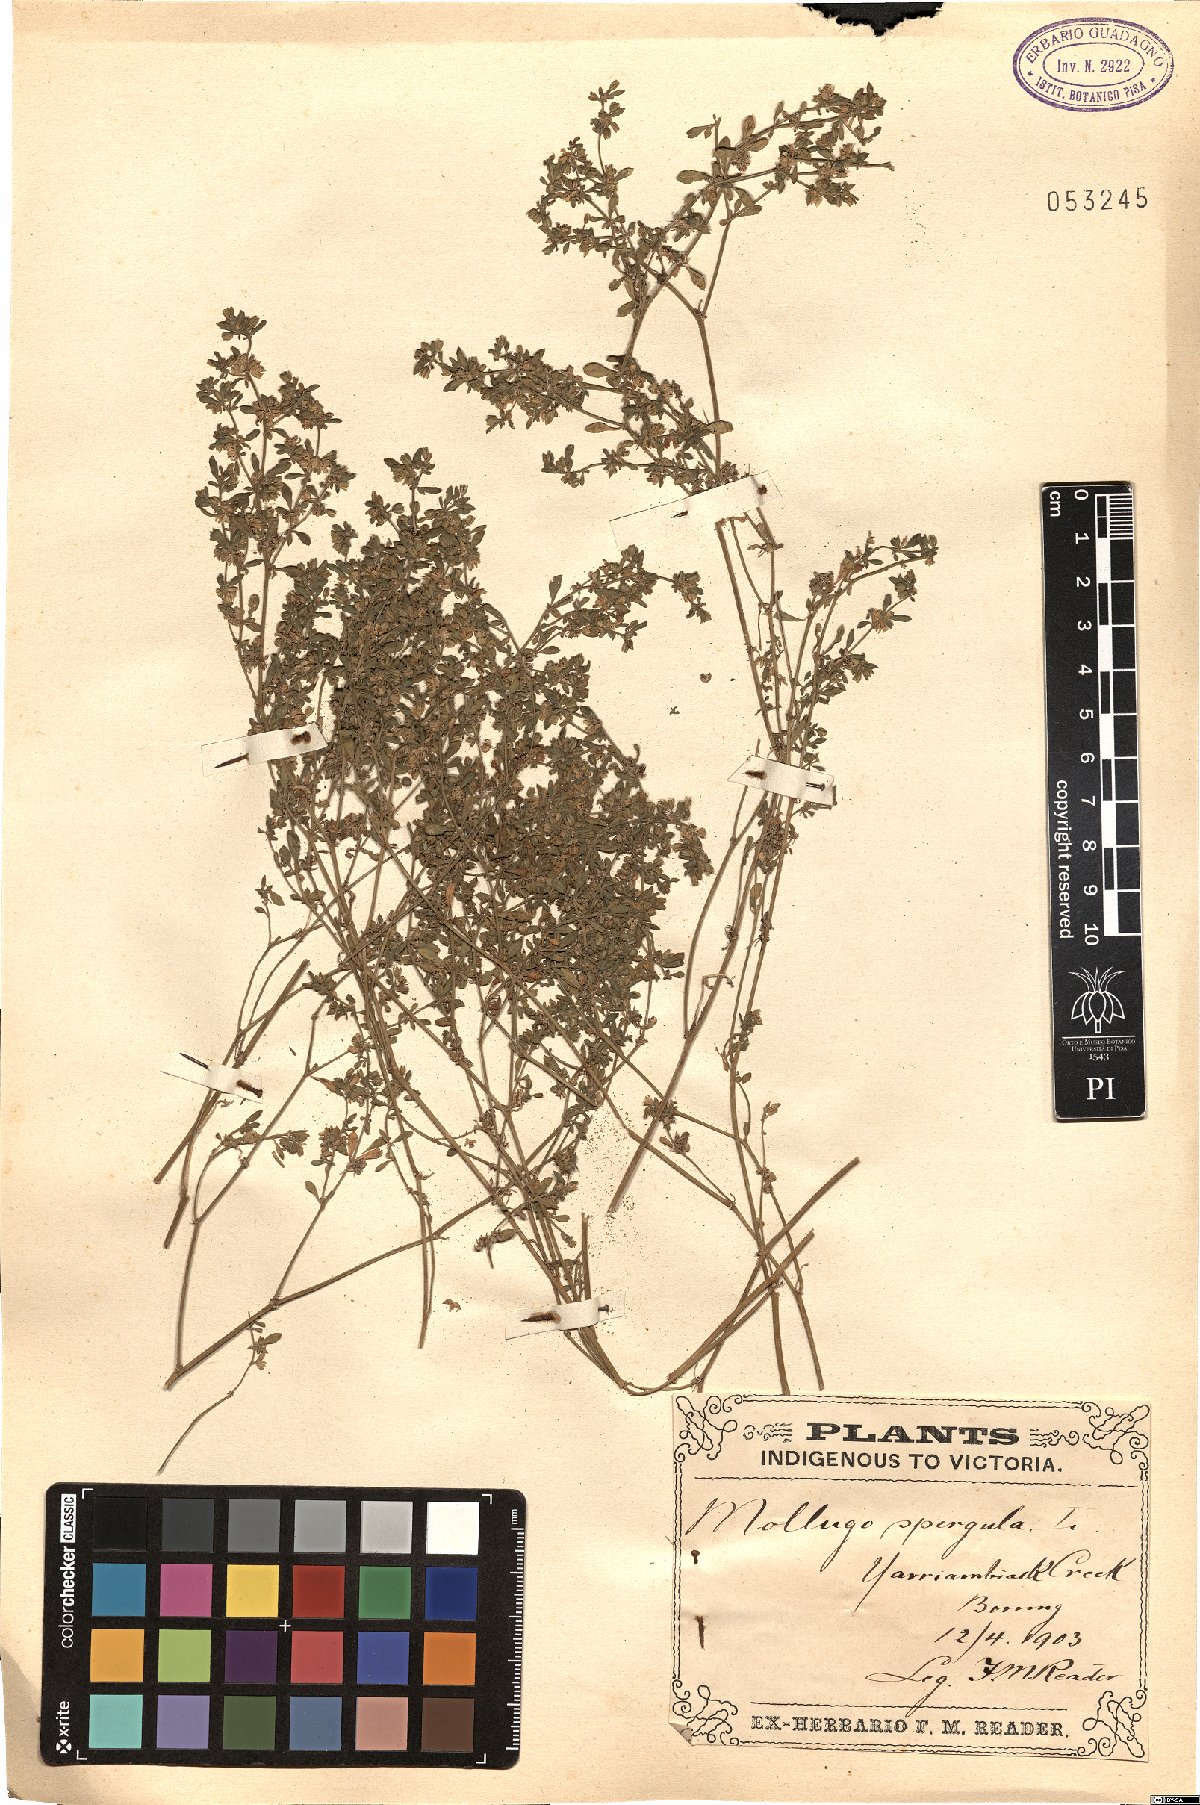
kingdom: Plantae
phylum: Tracheophyta
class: Magnoliopsida
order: Caryophyllales
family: Molluginaceae
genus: Glinus
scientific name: Glinus oppositifolius
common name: Slender carpetweed
